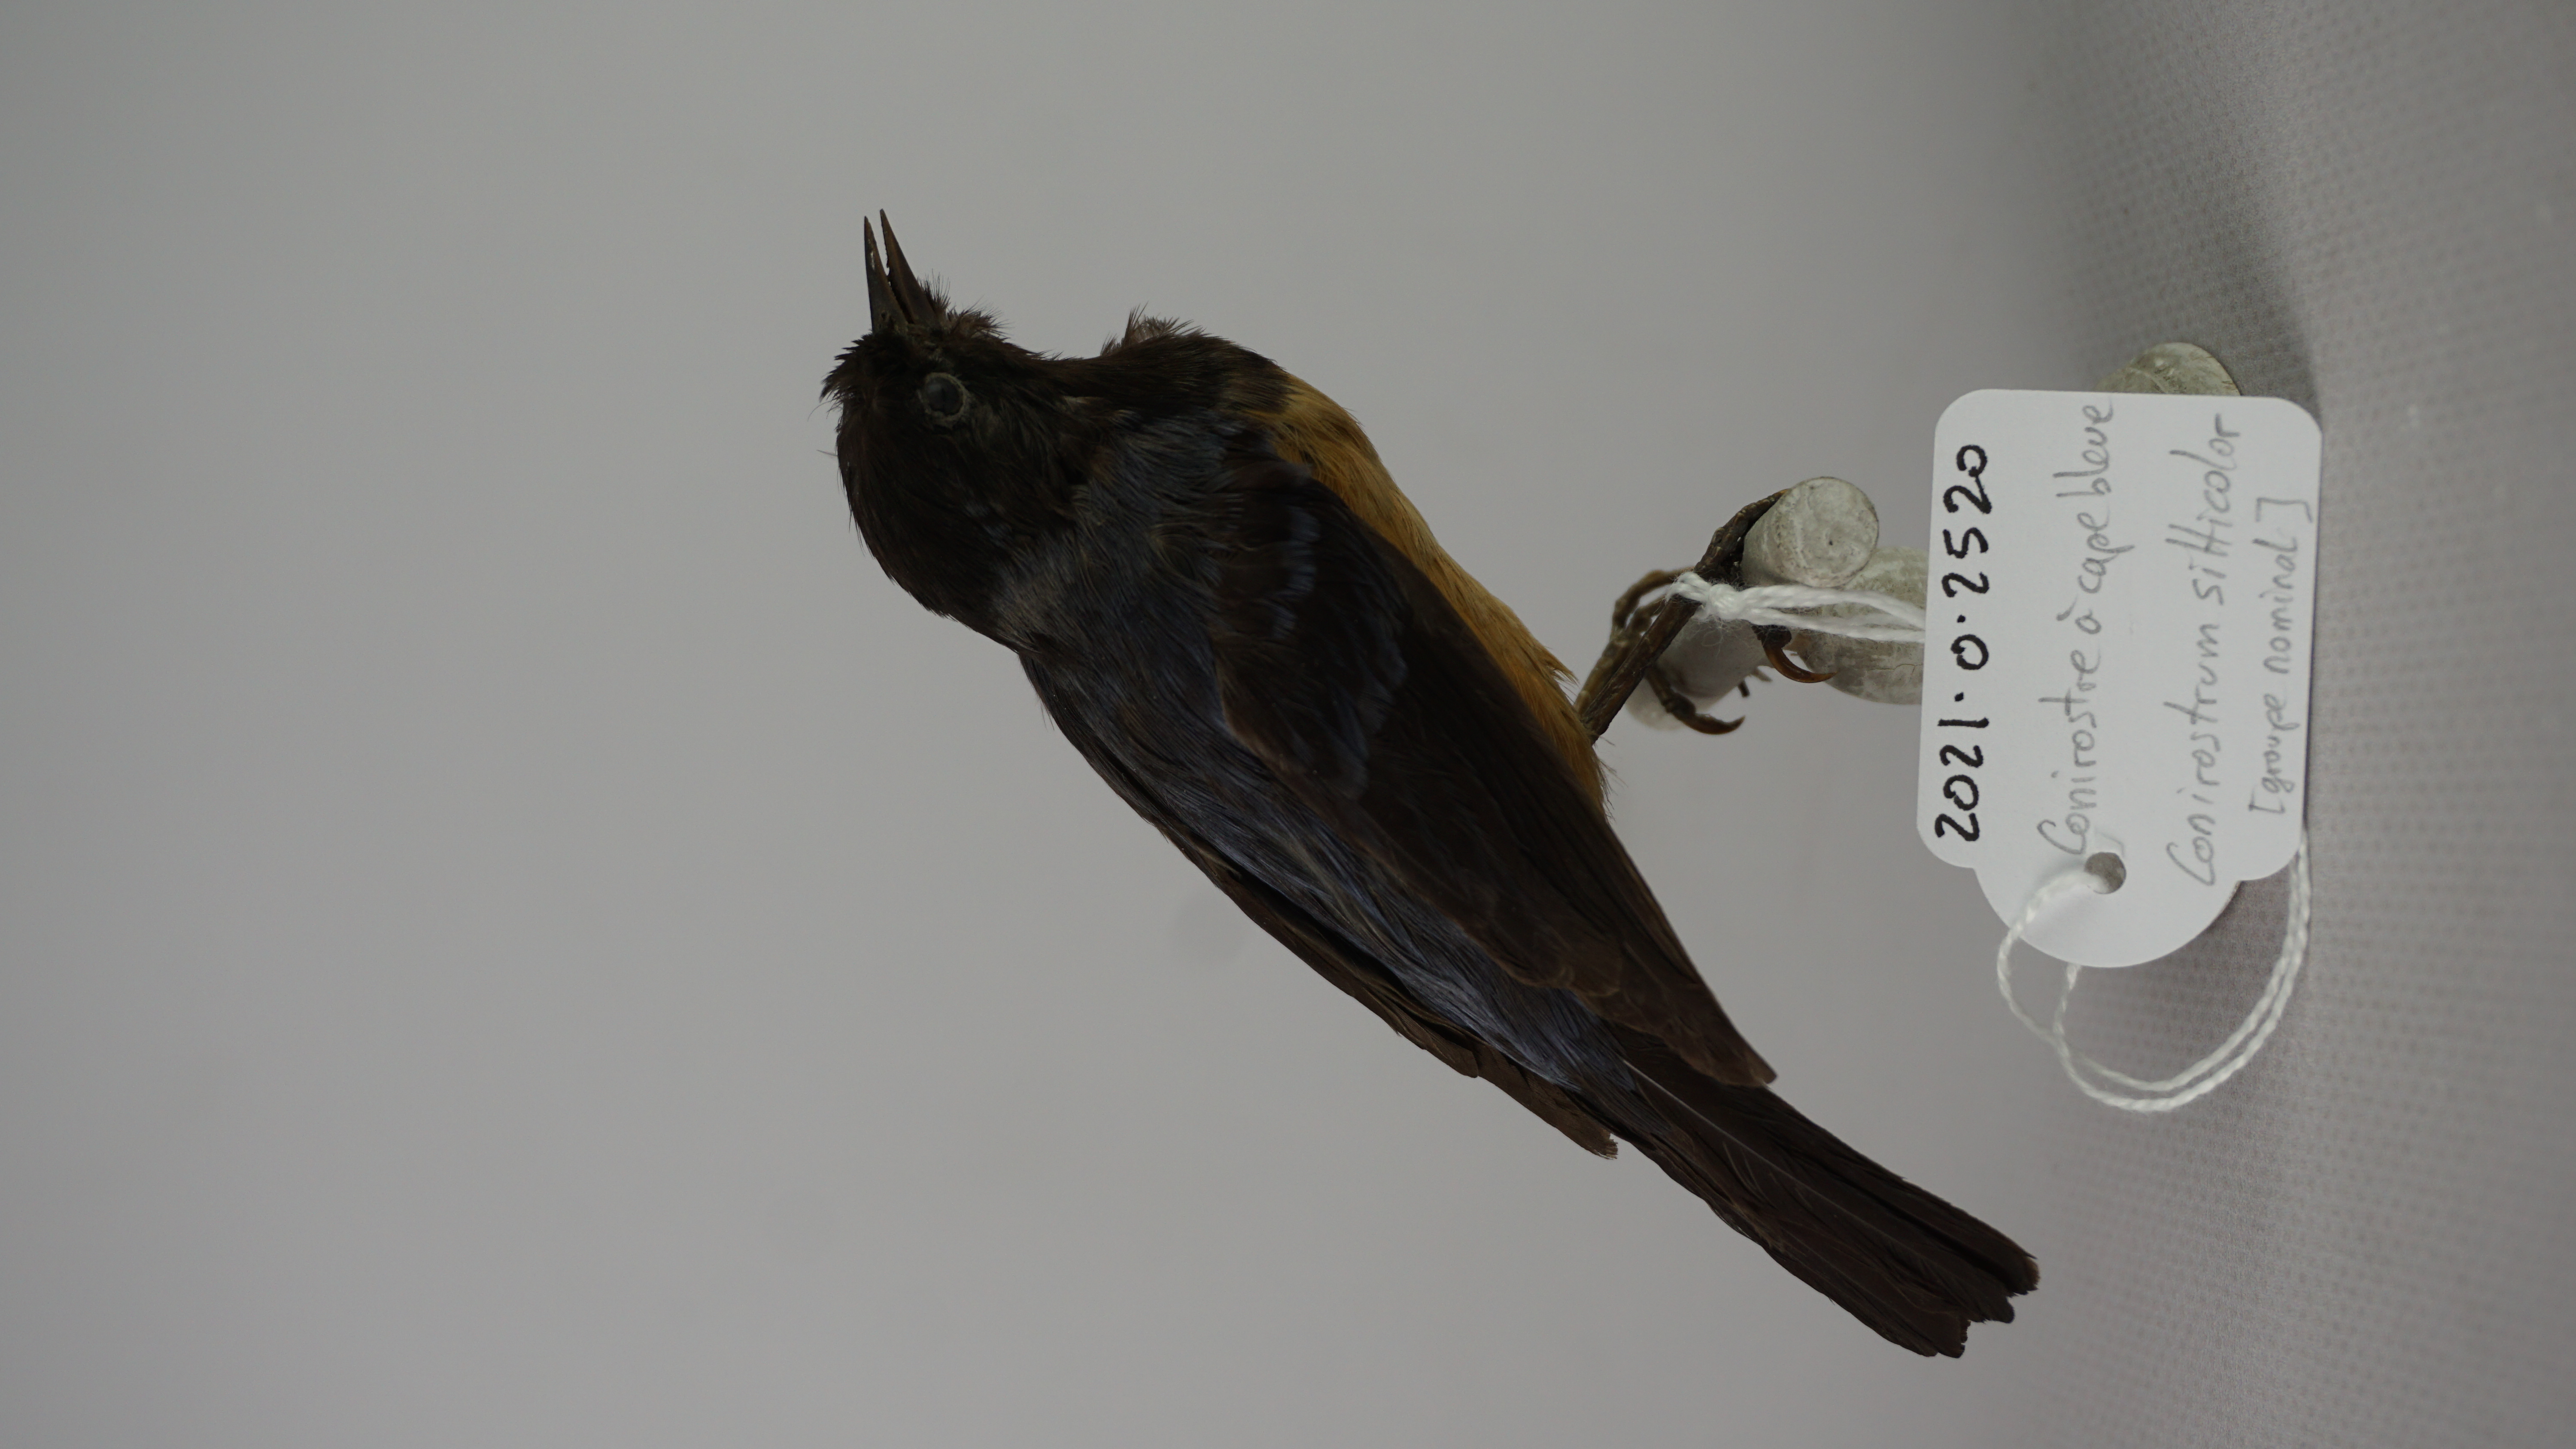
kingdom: Animalia
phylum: Chordata
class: Aves
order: Passeriformes
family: Thraupidae
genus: Conirostrum
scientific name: Conirostrum sitticolor
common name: Blue-backed conebill
